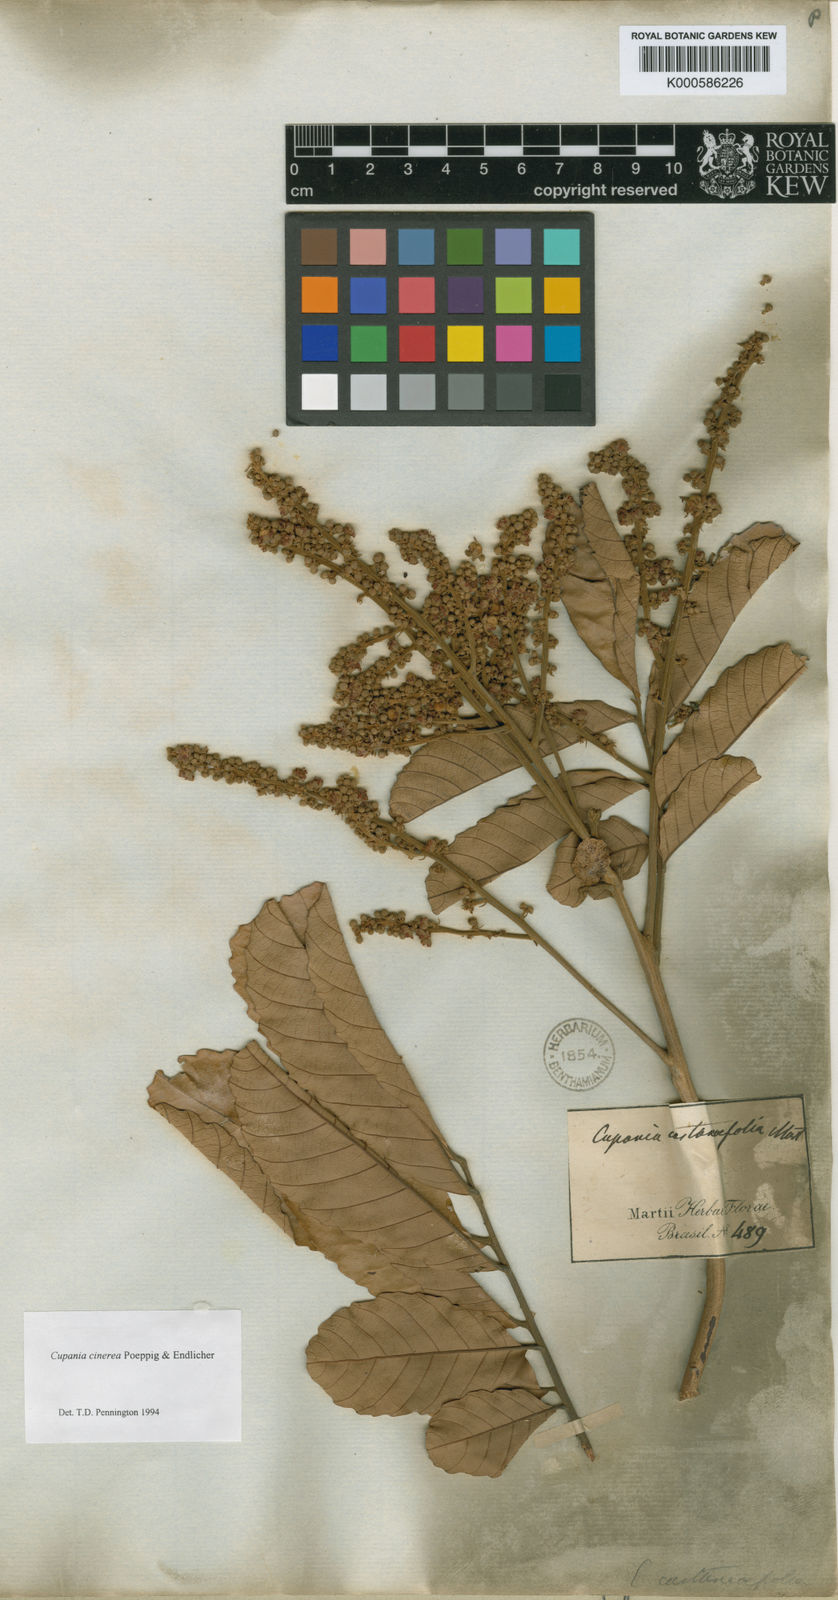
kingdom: Plantae
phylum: Tracheophyta
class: Magnoliopsida
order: Sapindales
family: Sapindaceae
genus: Cupania
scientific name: Cupania cinerea
